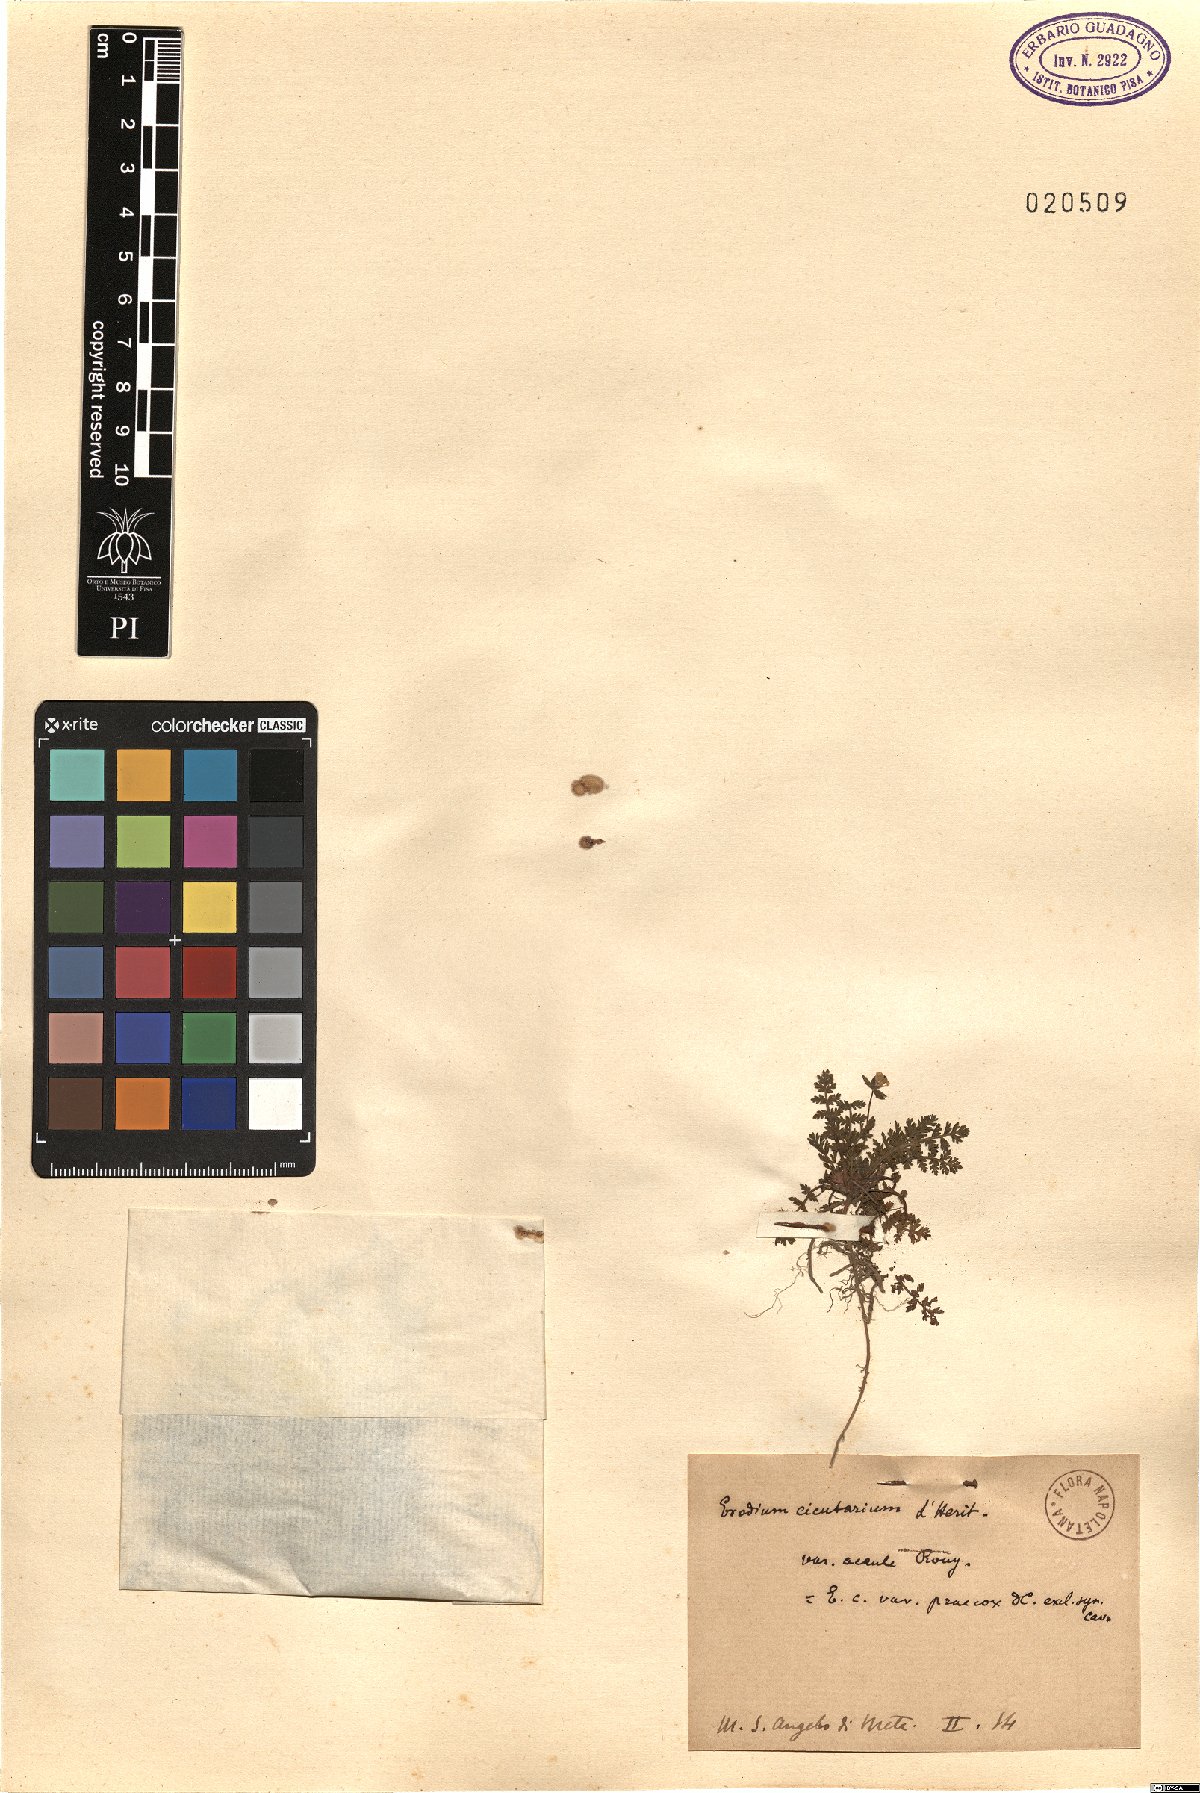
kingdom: Plantae
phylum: Tracheophyta
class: Magnoliopsida
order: Geraniales
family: Geraniaceae
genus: Erodium
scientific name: Erodium cicutarium
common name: Common stork's-bill
